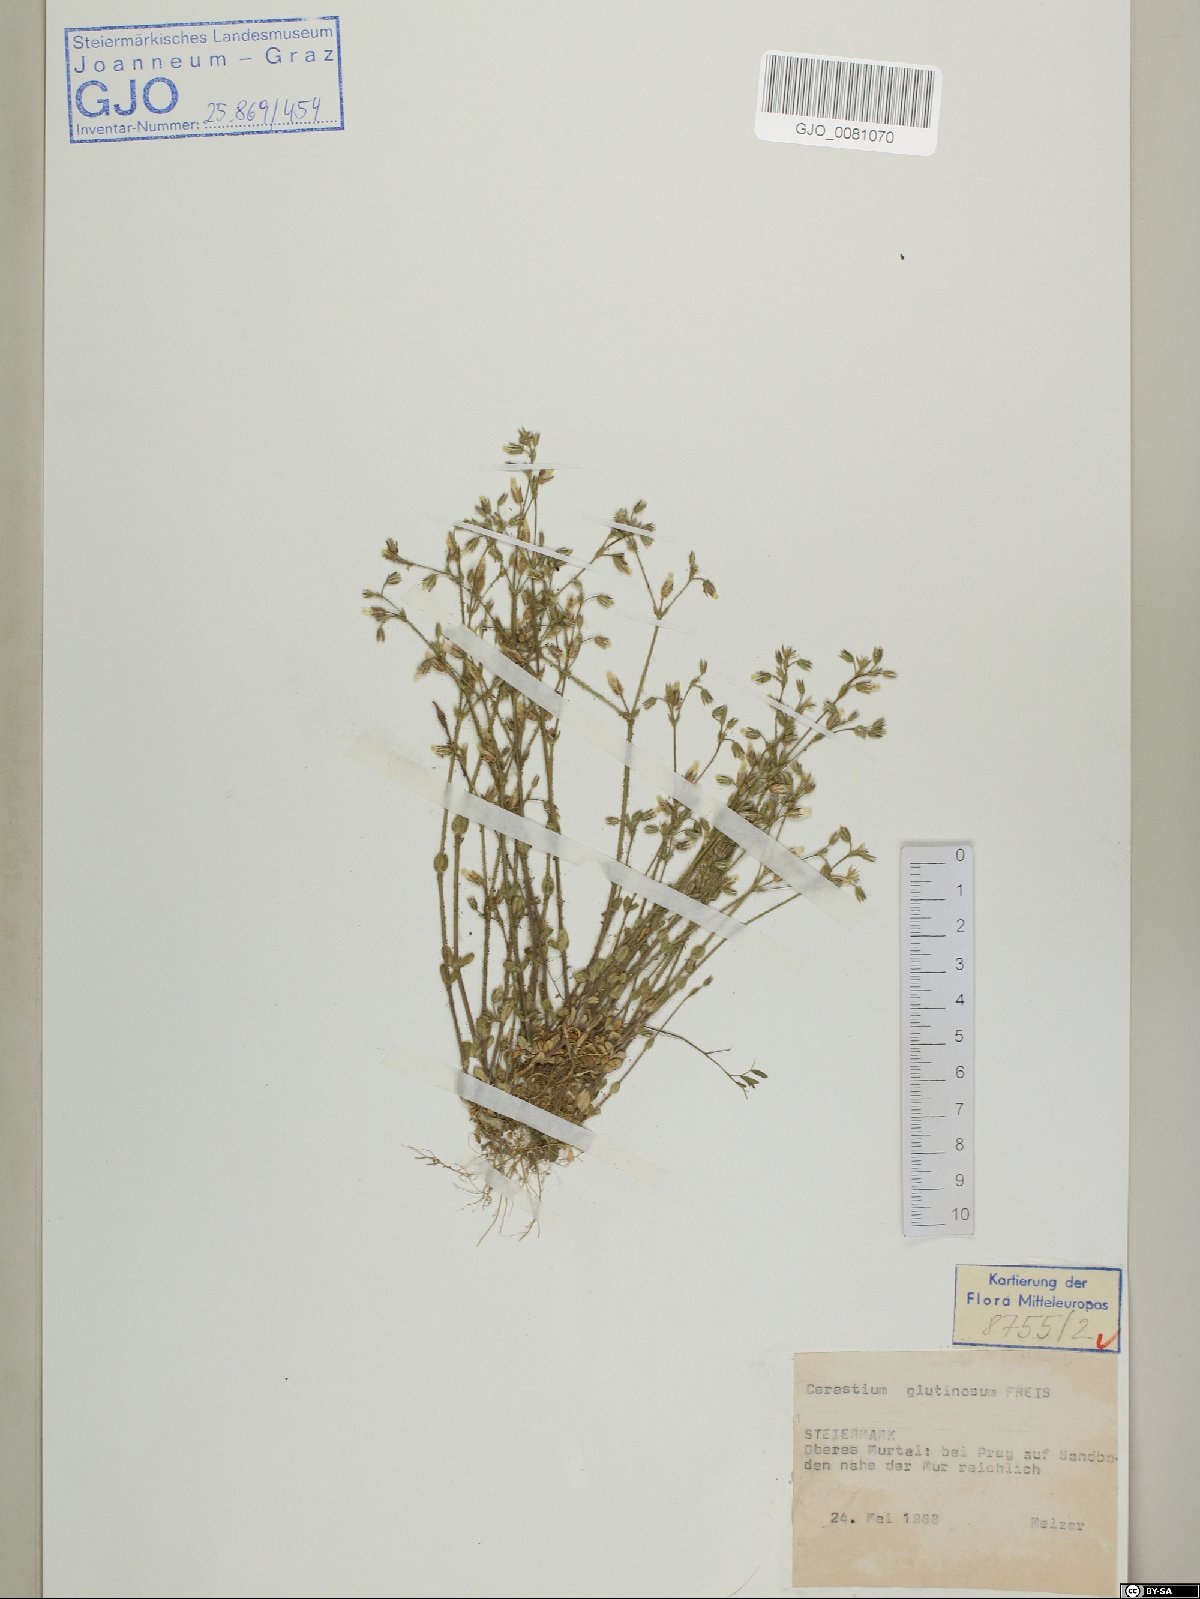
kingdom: Plantae
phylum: Tracheophyta
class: Magnoliopsida
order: Caryophyllales
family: Caryophyllaceae
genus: Cerastium
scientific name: Cerastium glutinosum
